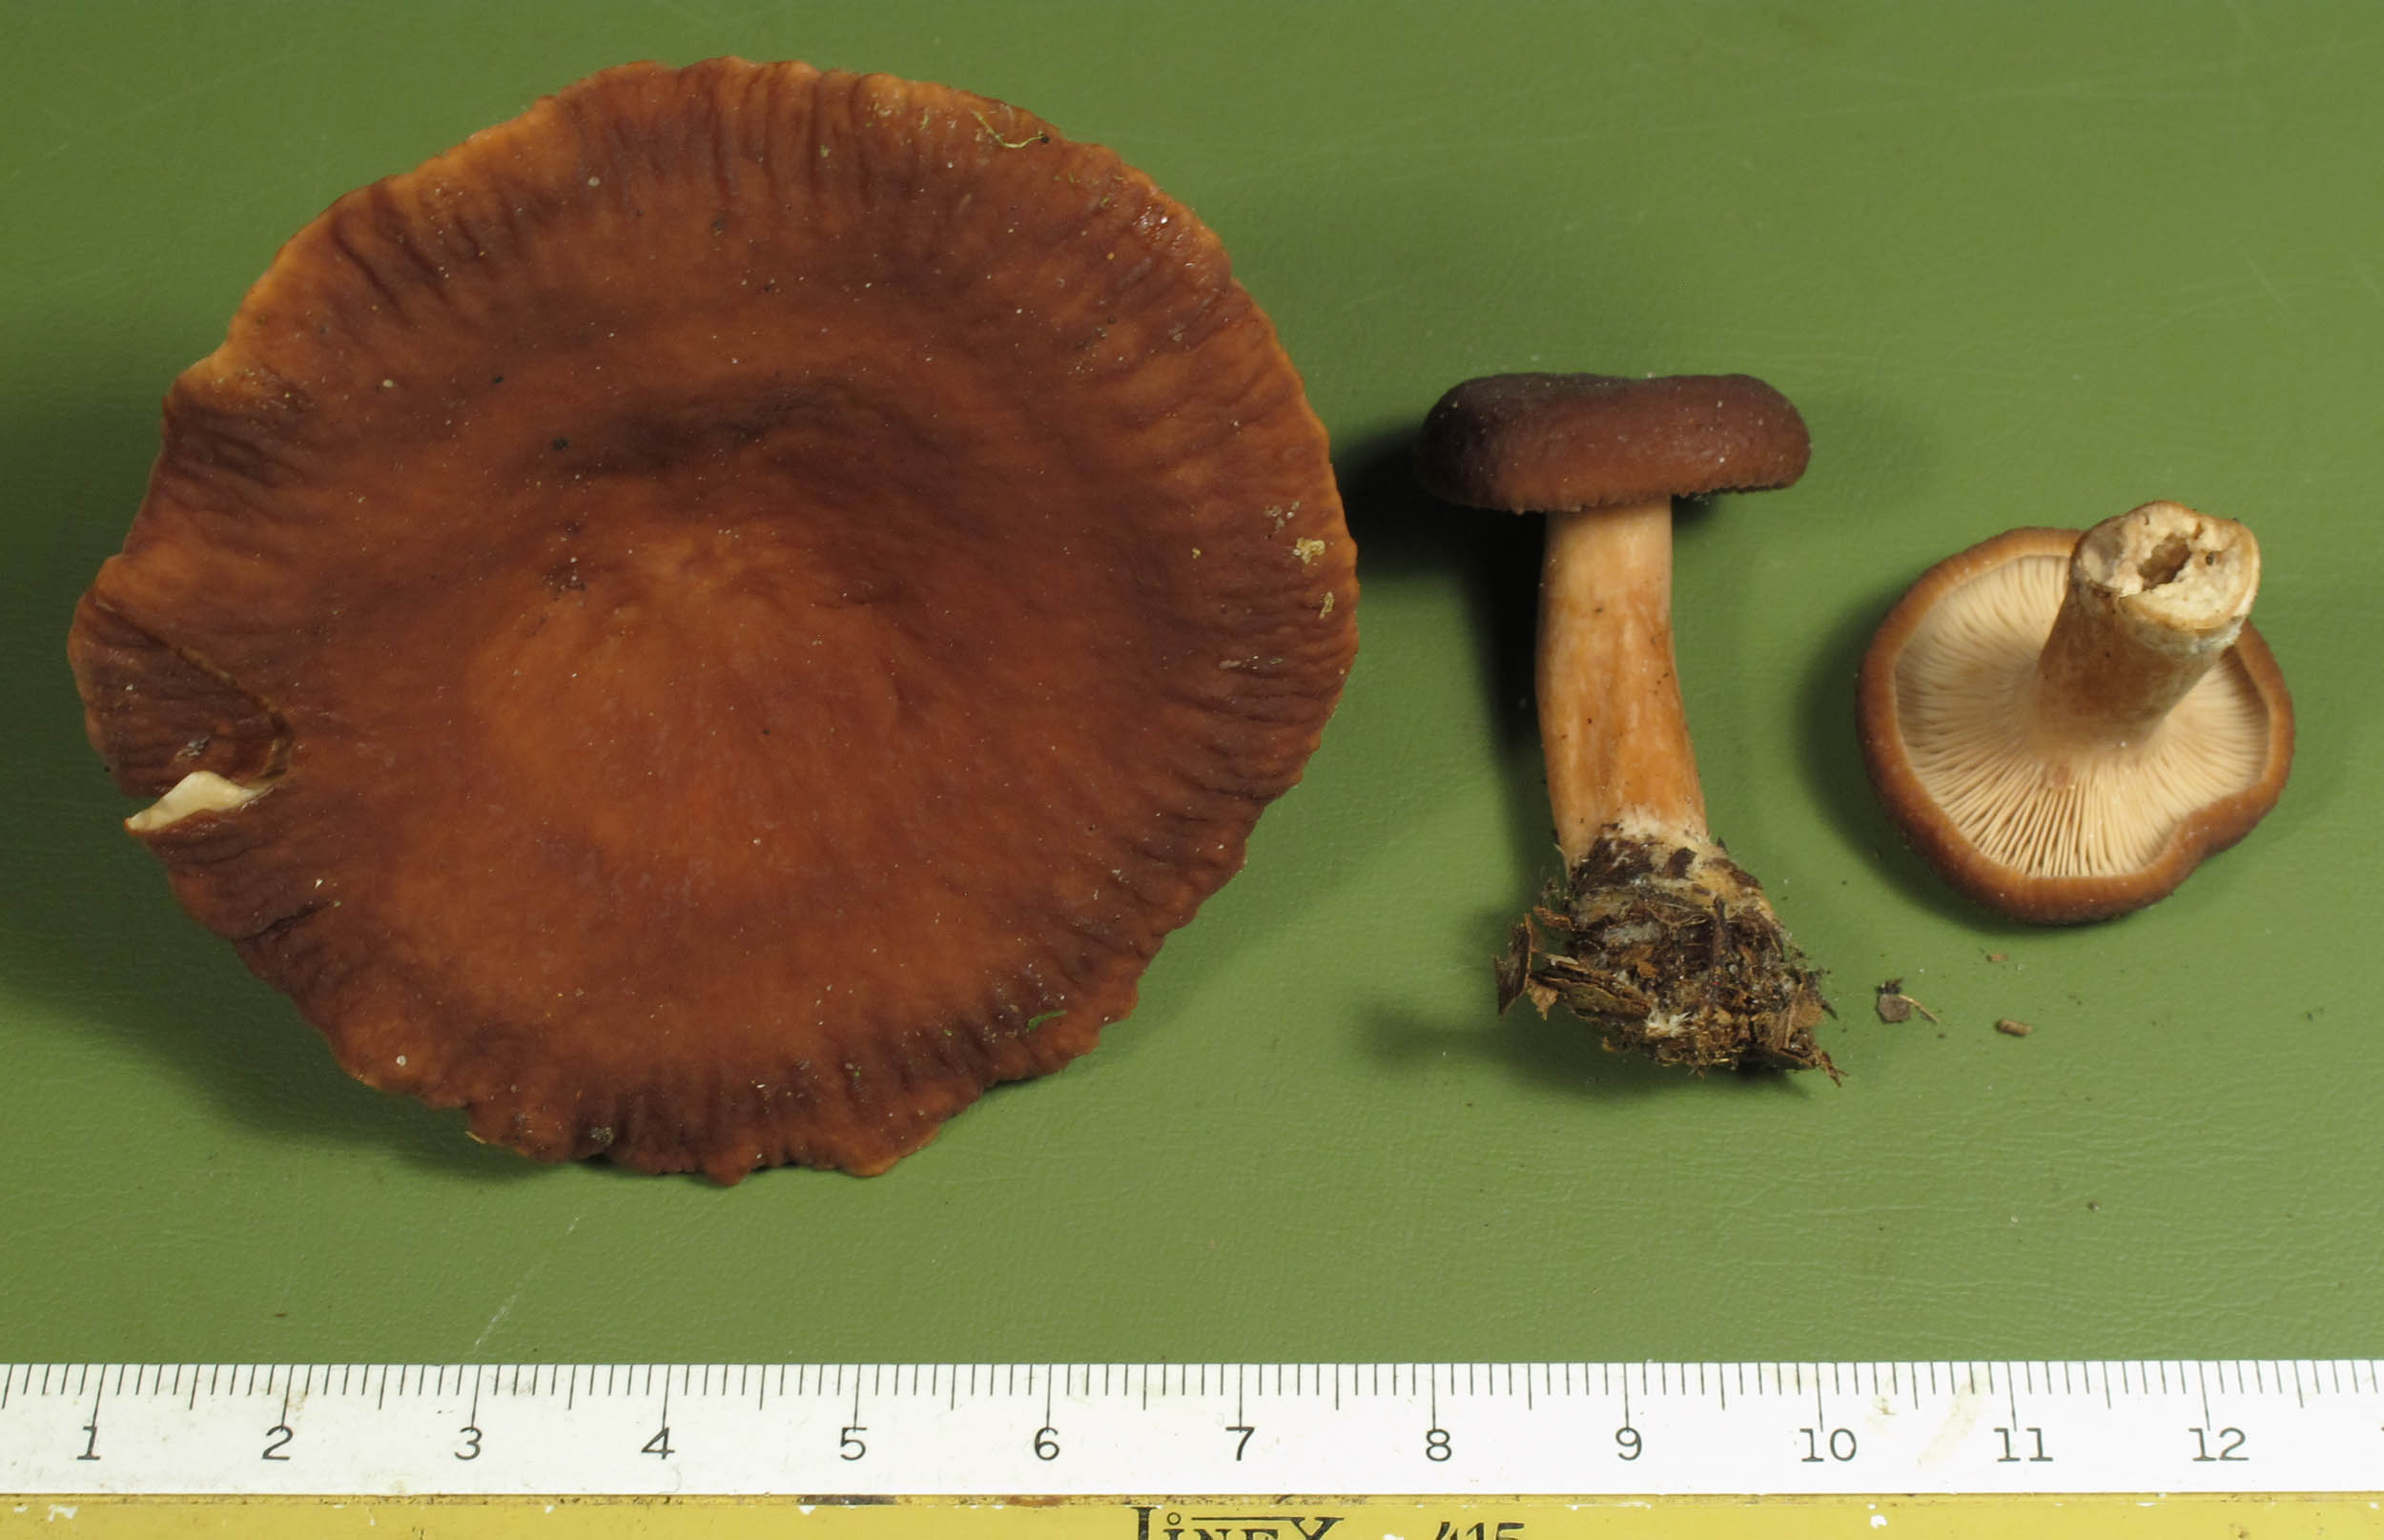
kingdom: Fungi
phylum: Basidiomycota
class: Agaricomycetes
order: Russulales
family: Russulaceae
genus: Lactarius
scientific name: Lactarius serifluus
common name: tæge-mælkehat
